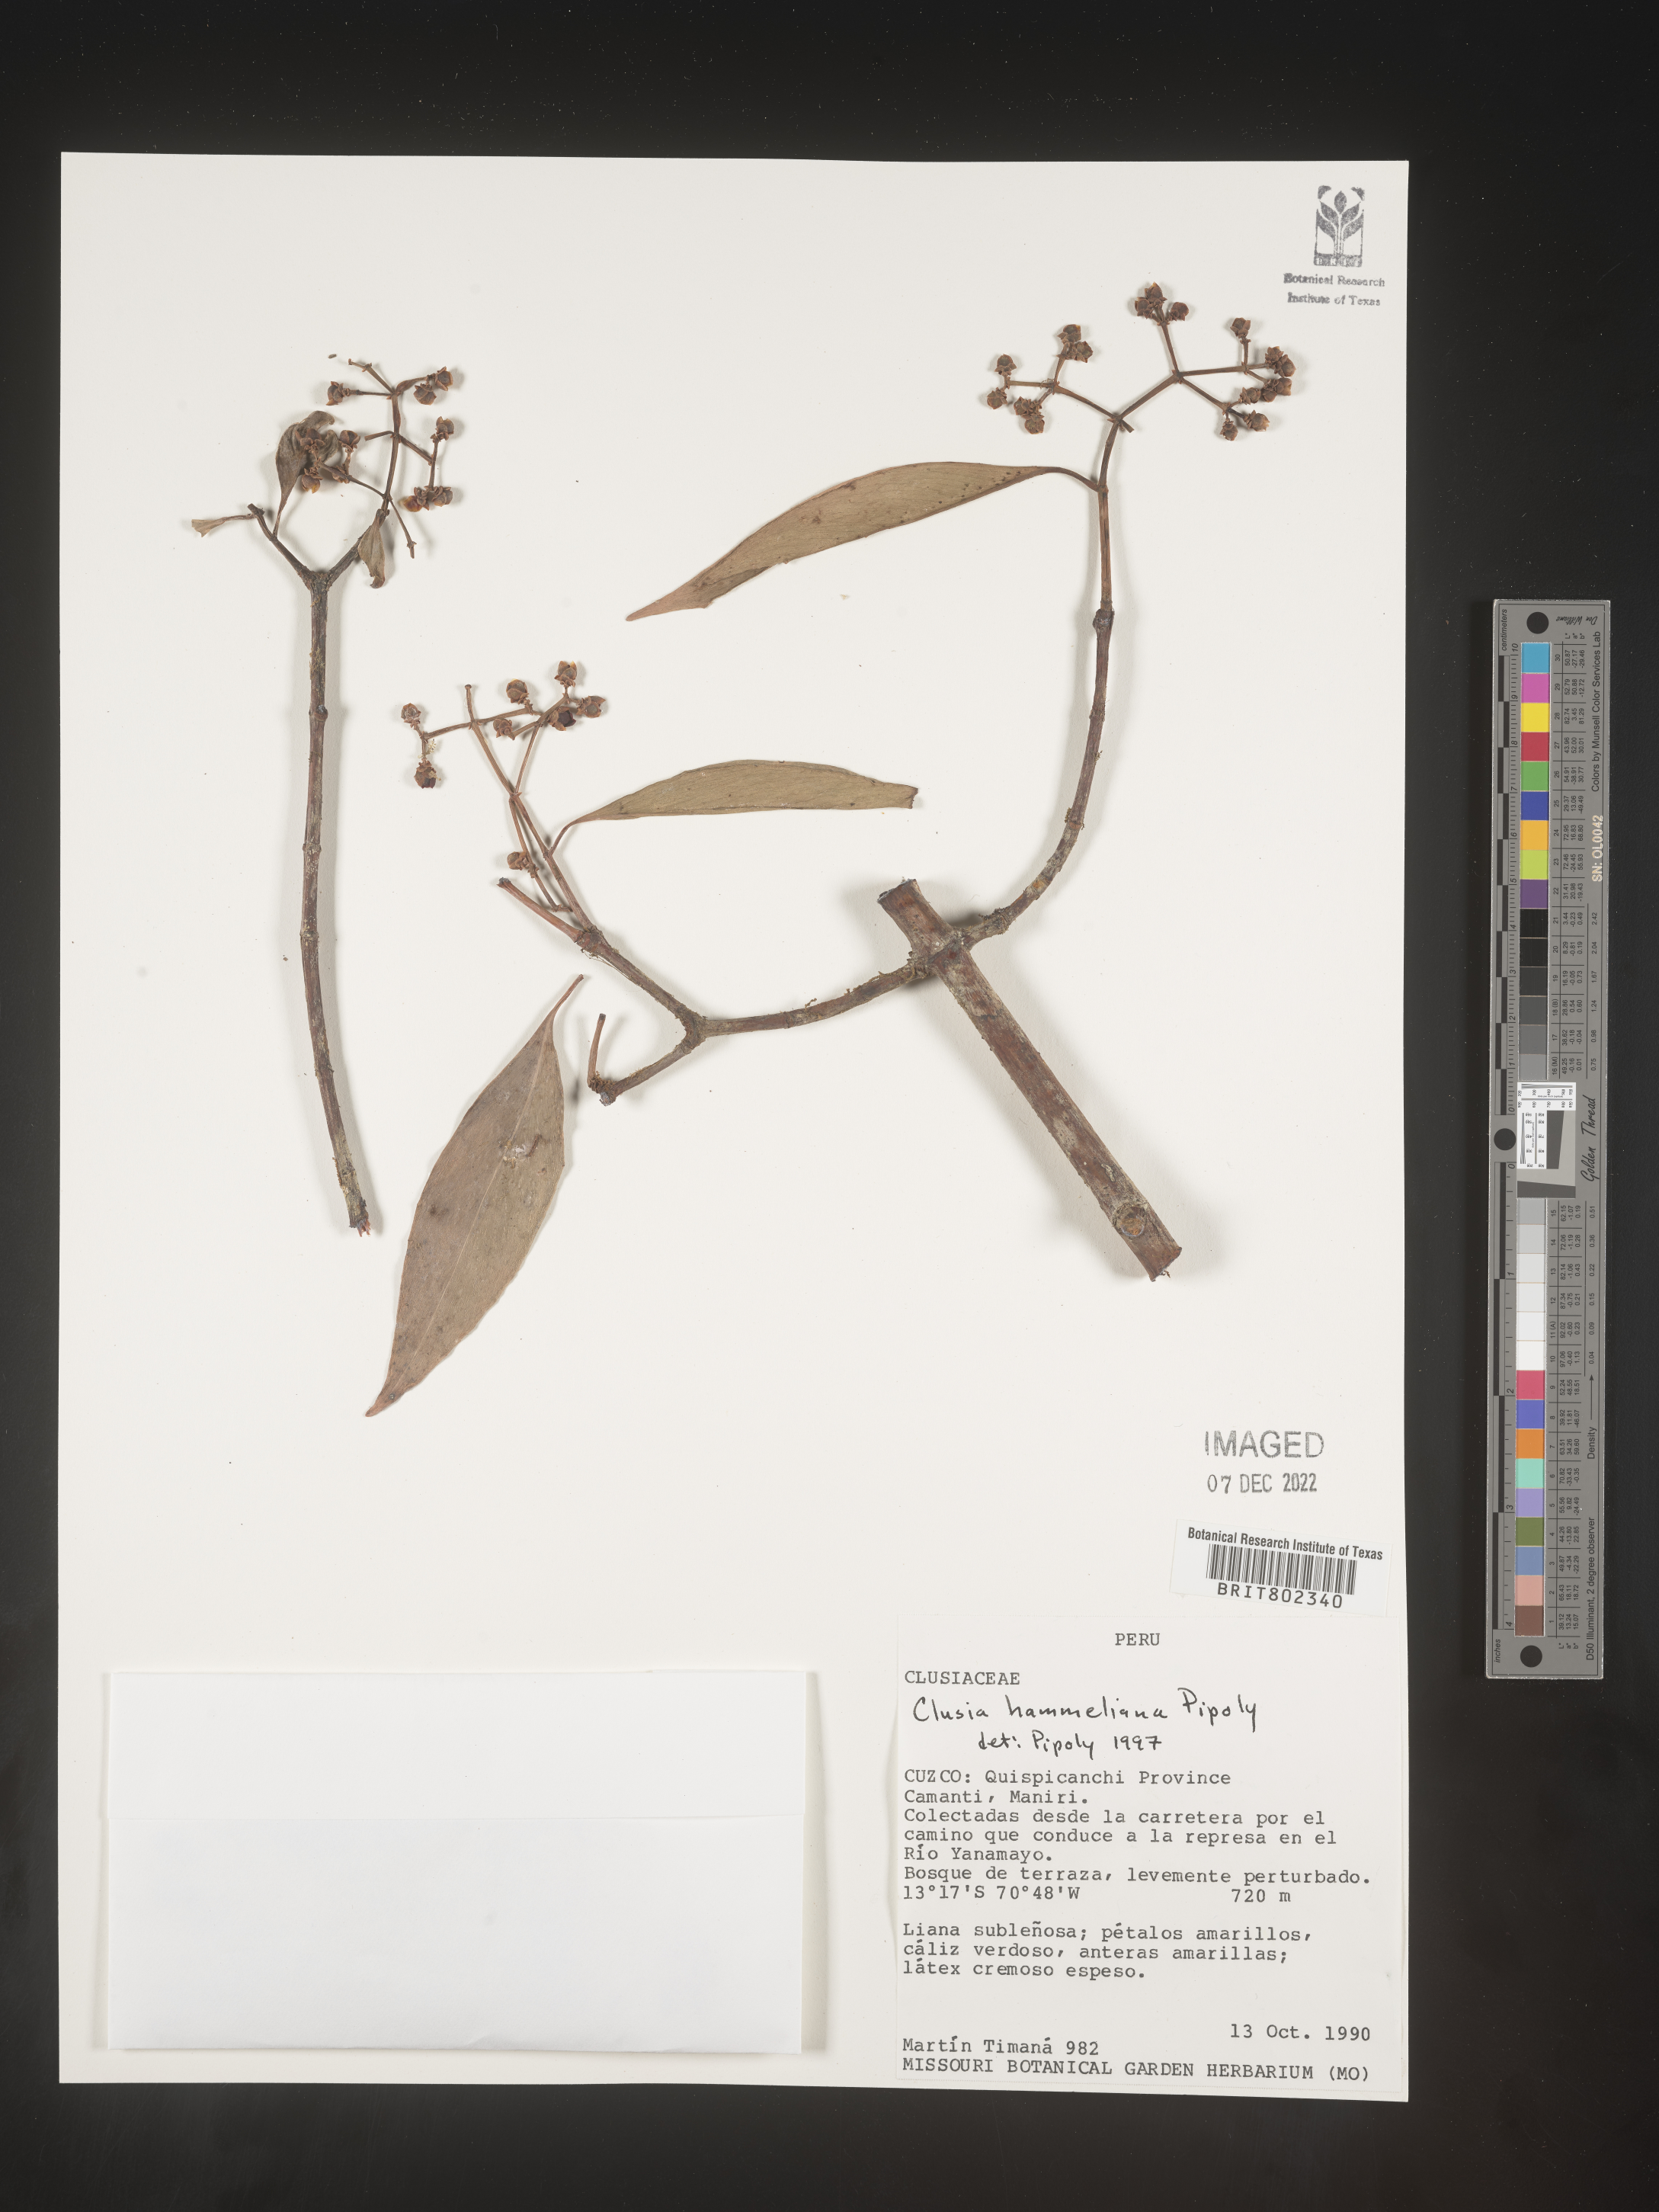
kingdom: Plantae
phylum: Tracheophyta
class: Magnoliopsida
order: Malpighiales
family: Clusiaceae
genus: Clusia
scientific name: Clusia hammeliana
